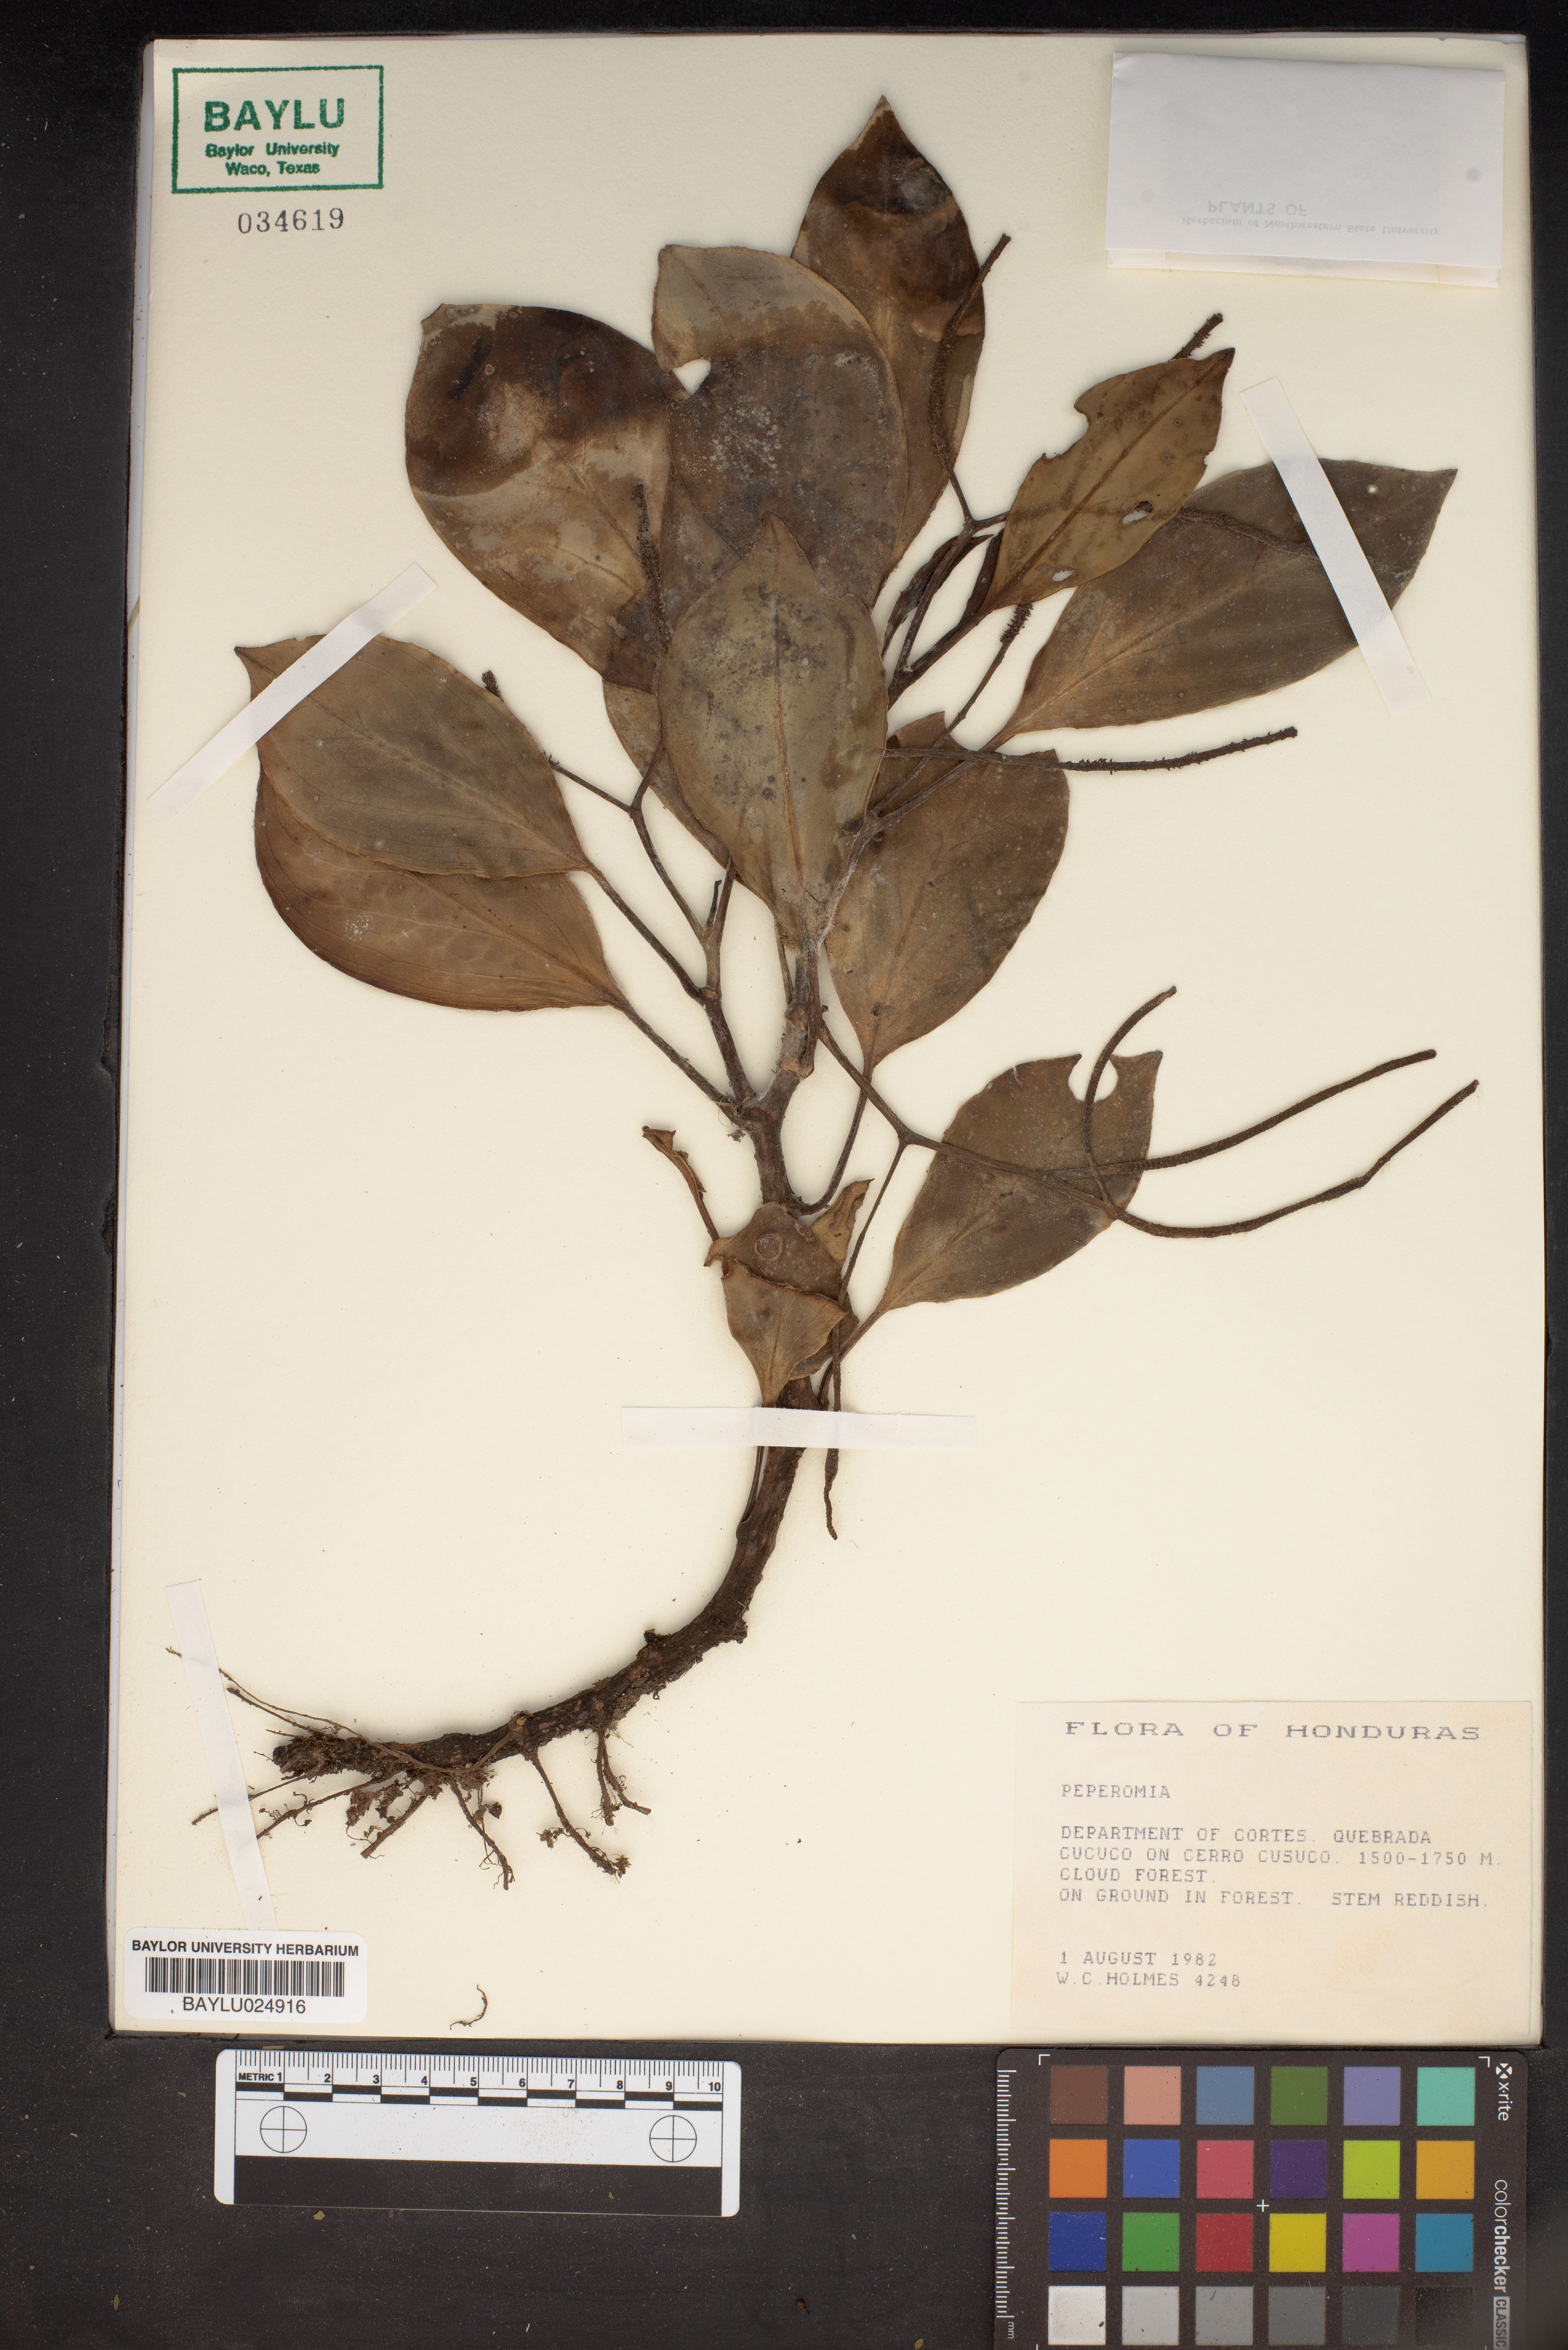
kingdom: Plantae
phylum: Tracheophyta
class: Magnoliopsida
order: Piperales
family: Piperaceae
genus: Peperomia
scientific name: Peperomia
